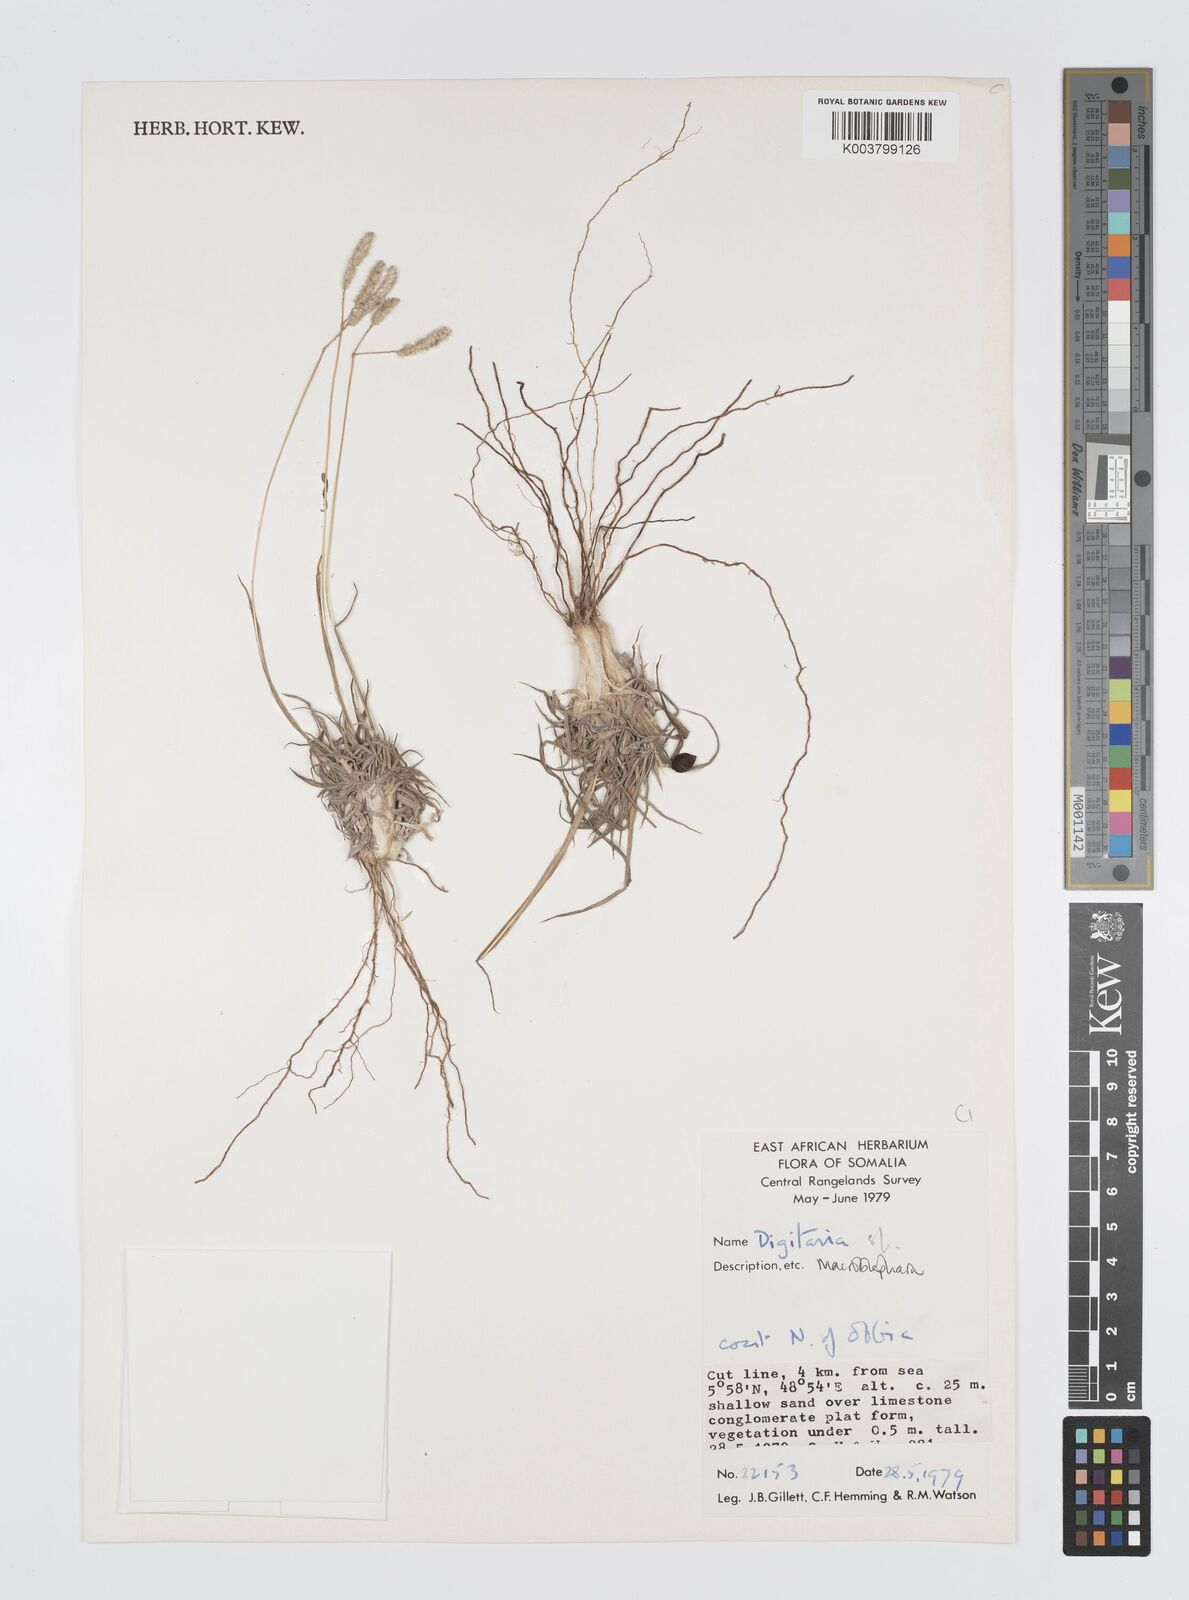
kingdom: Plantae
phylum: Tracheophyta
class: Liliopsida
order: Poales
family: Poaceae
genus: Digitaria
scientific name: Digitaria macroblephara
